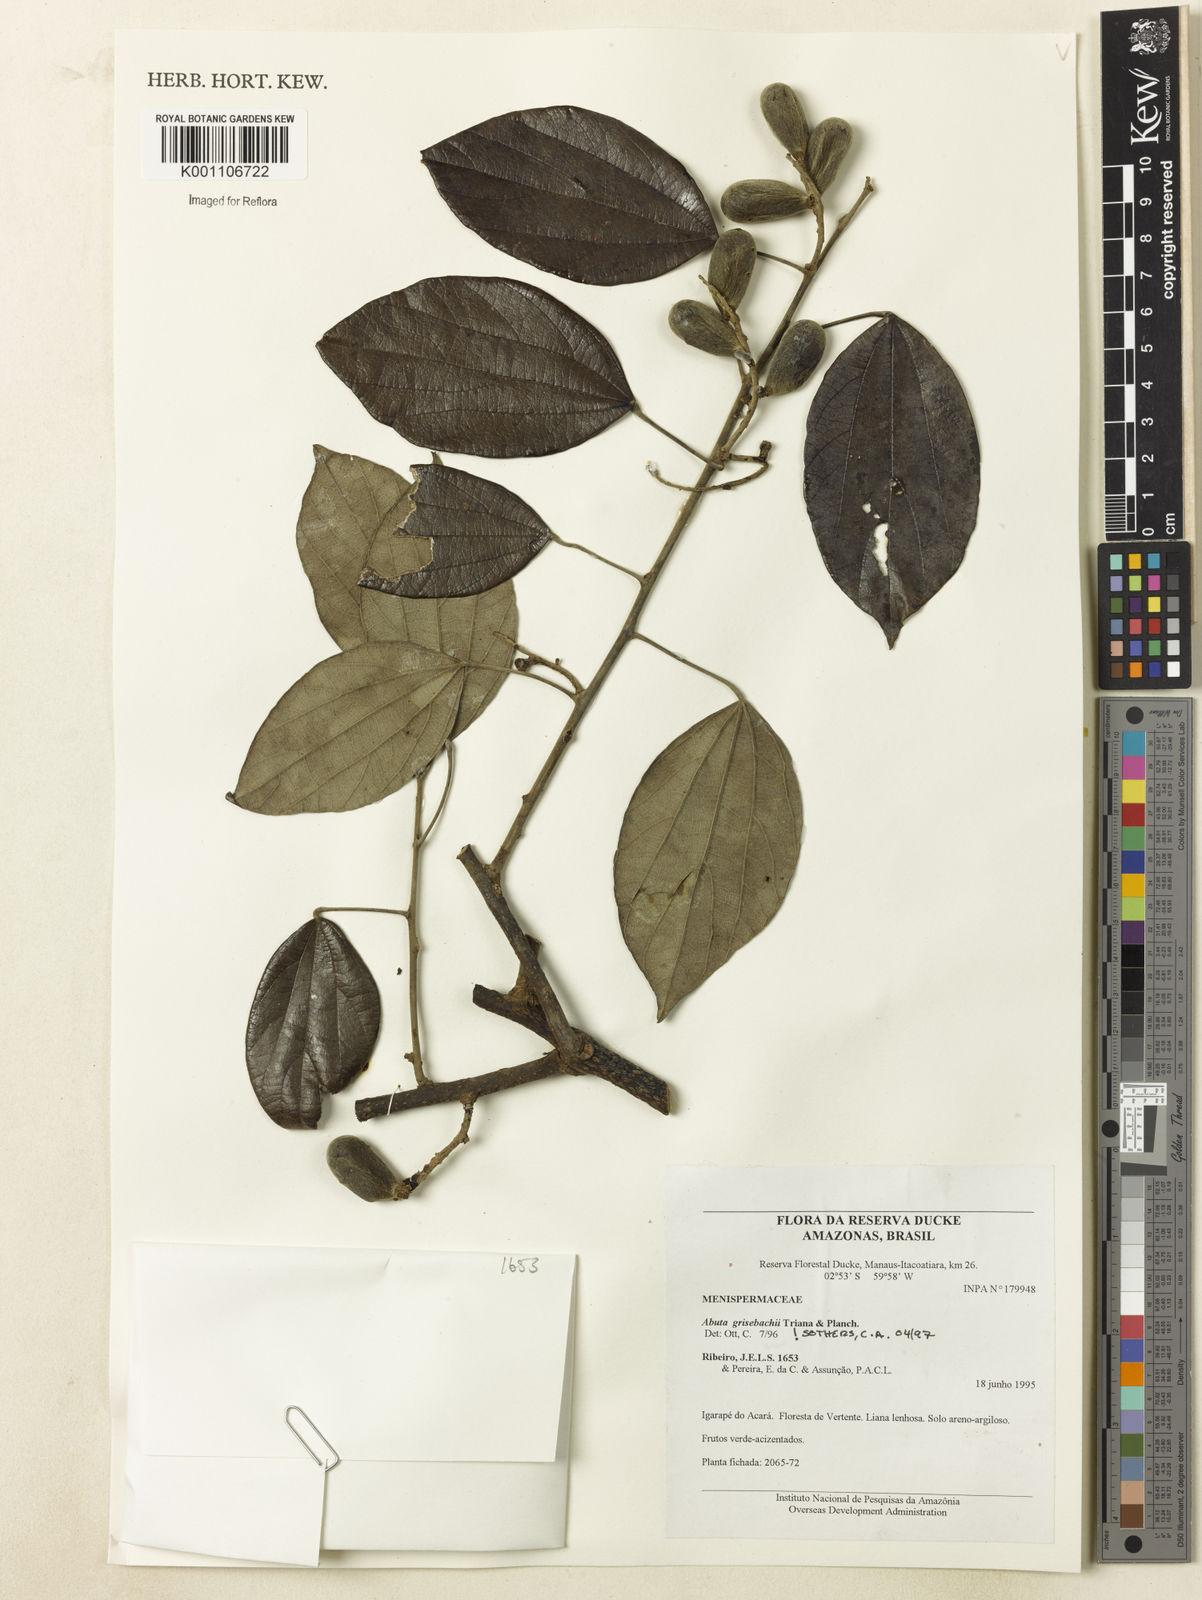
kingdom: Plantae
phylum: Tracheophyta
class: Magnoliopsida
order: Ranunculales
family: Menispermaceae
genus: Abuta
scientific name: Abuta grisebachii
